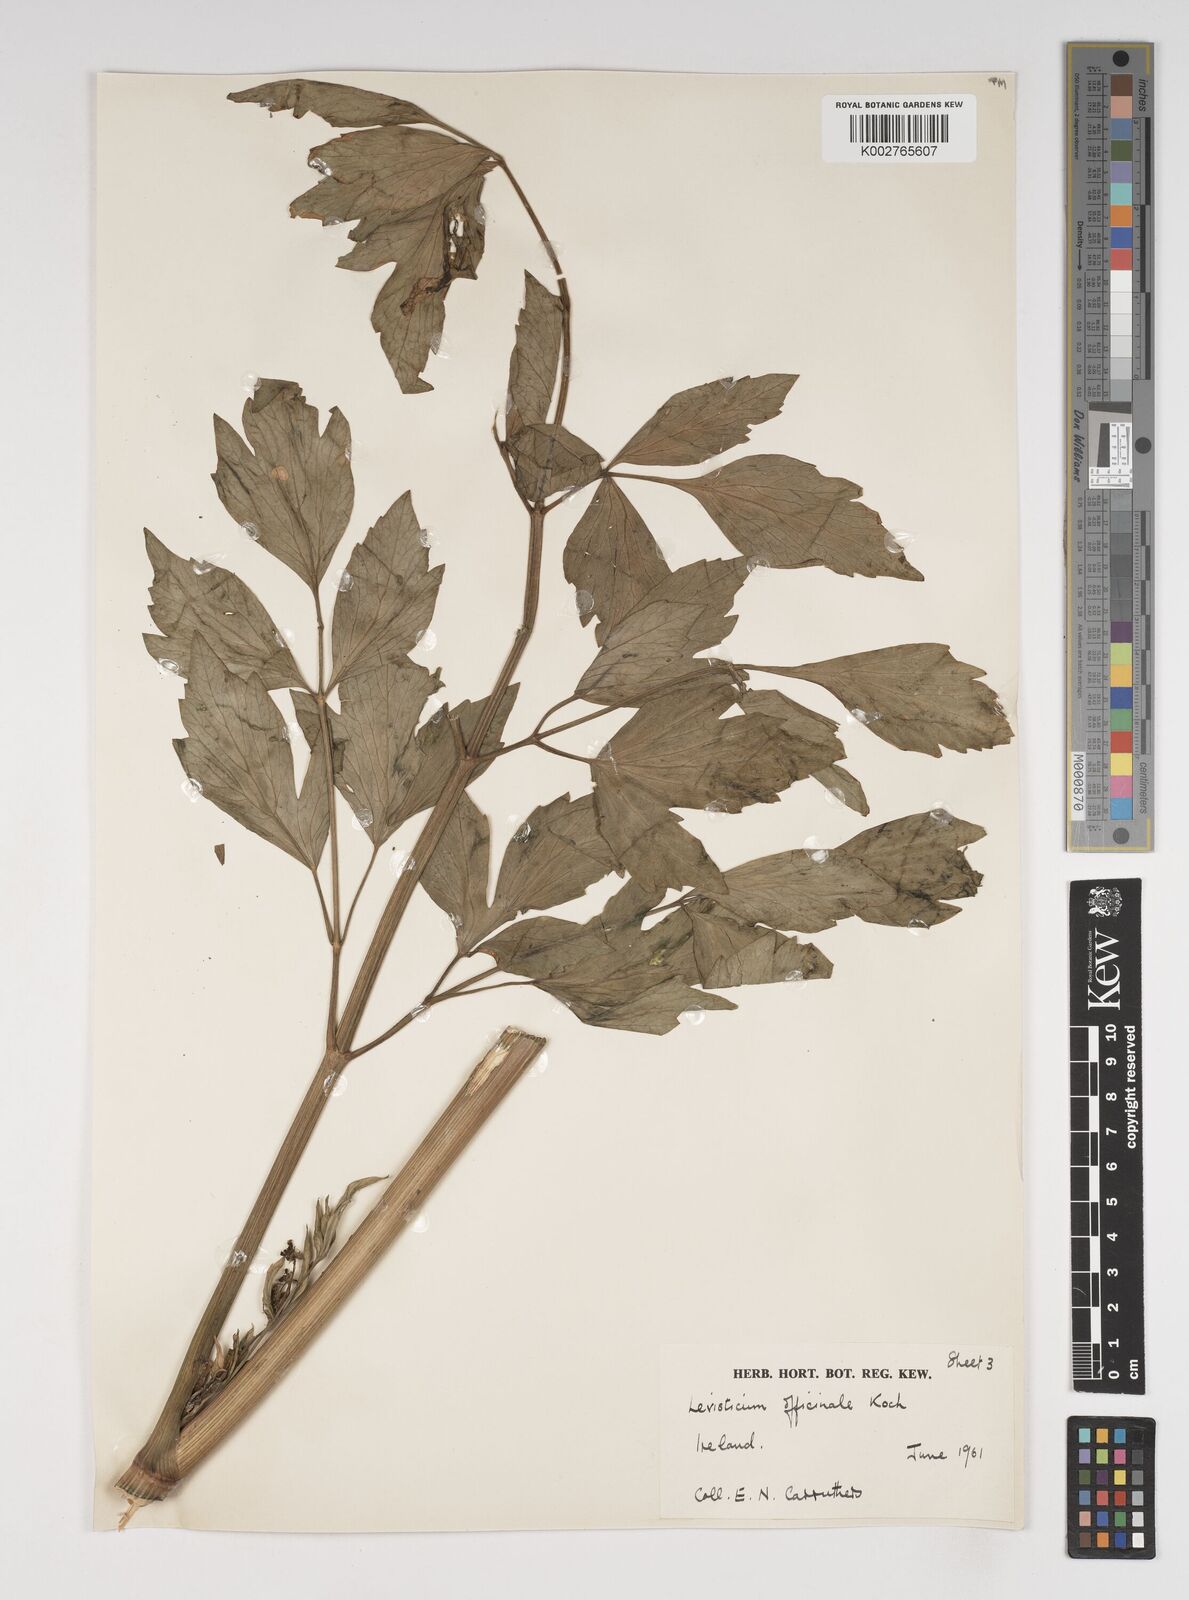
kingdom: Plantae
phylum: Tracheophyta
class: Magnoliopsida
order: Apiales
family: Apiaceae
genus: Levisticum
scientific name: Levisticum officinale
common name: Lovage
